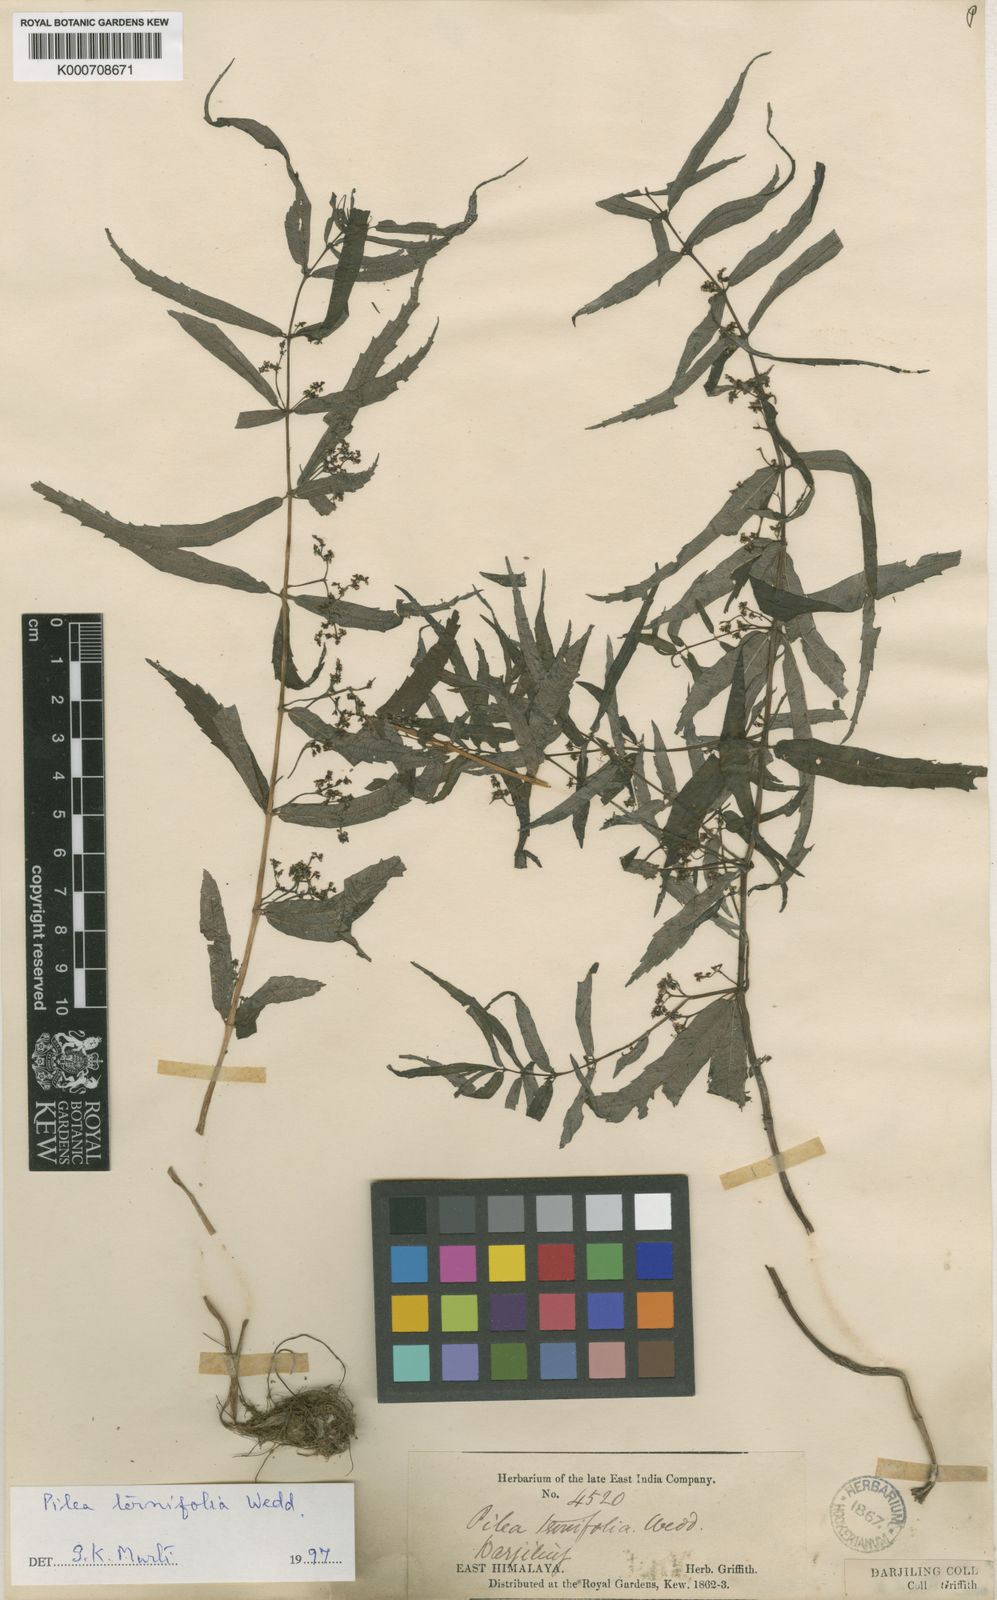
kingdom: Plantae
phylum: Tracheophyta
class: Magnoliopsida
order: Rosales
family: Urticaceae
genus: Pilea
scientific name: Pilea ternifolia
